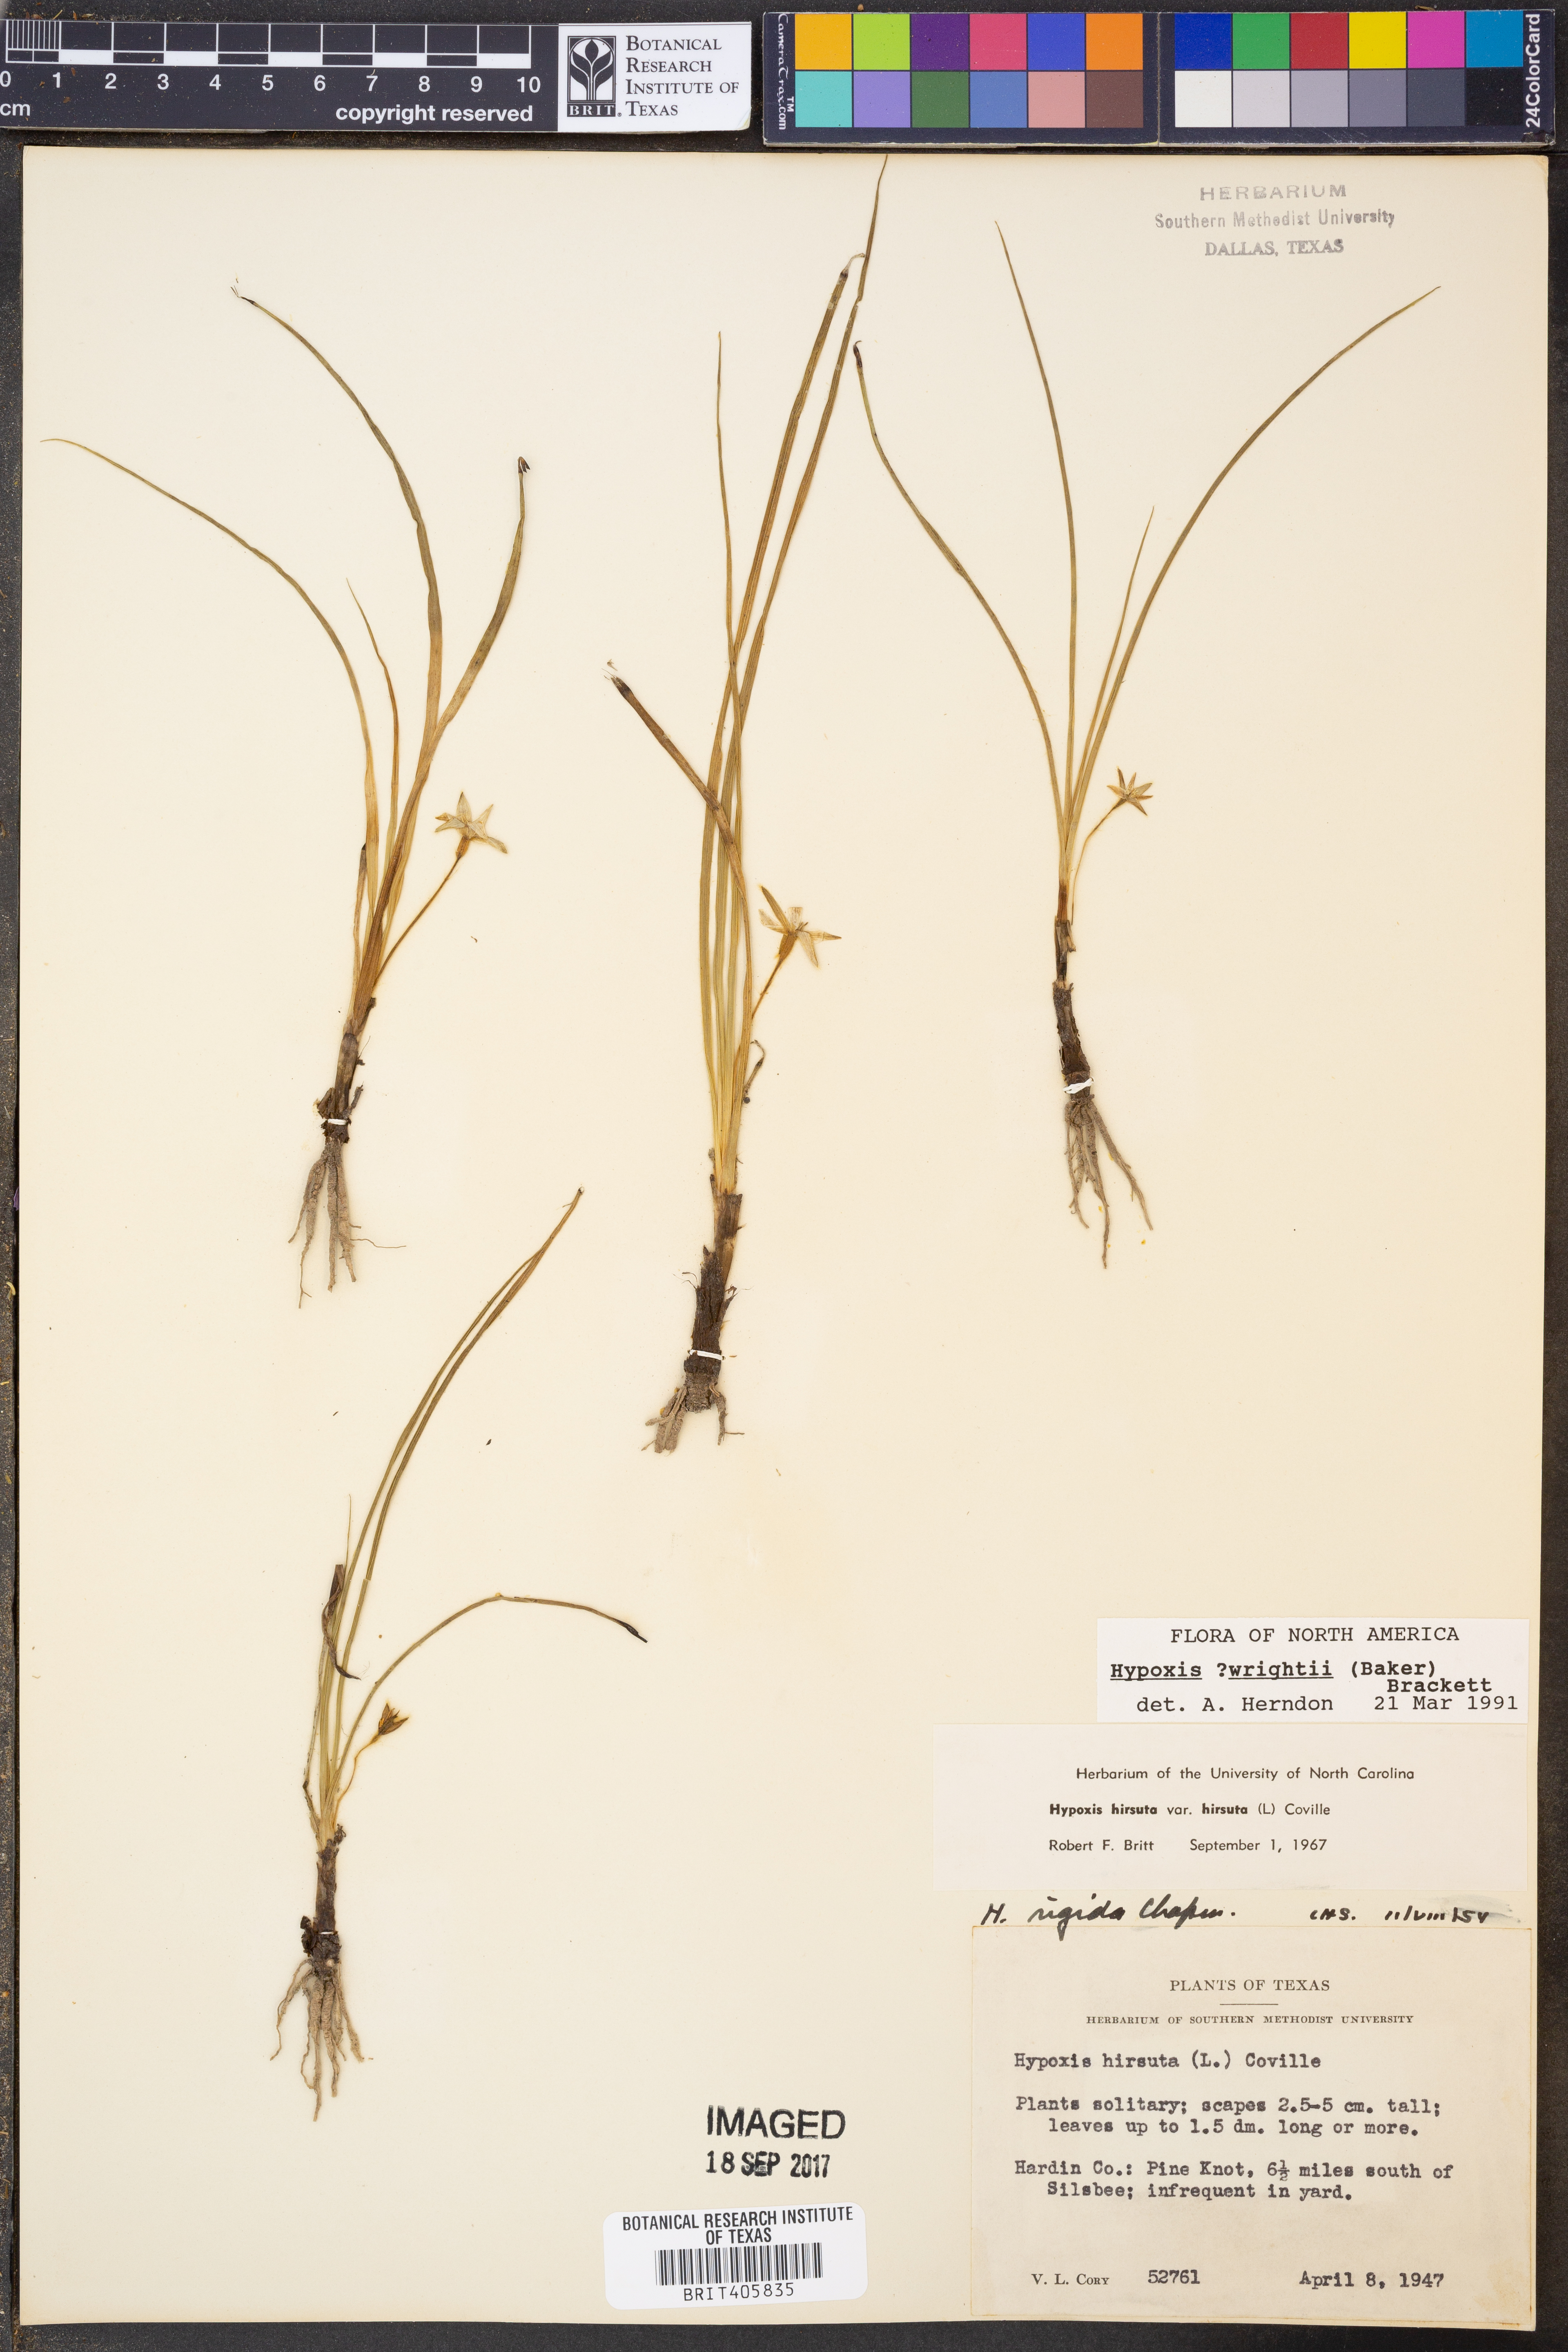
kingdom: Plantae
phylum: Tracheophyta
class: Liliopsida
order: Asparagales
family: Hypoxidaceae
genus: Hypoxis
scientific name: Hypoxis wrightii
